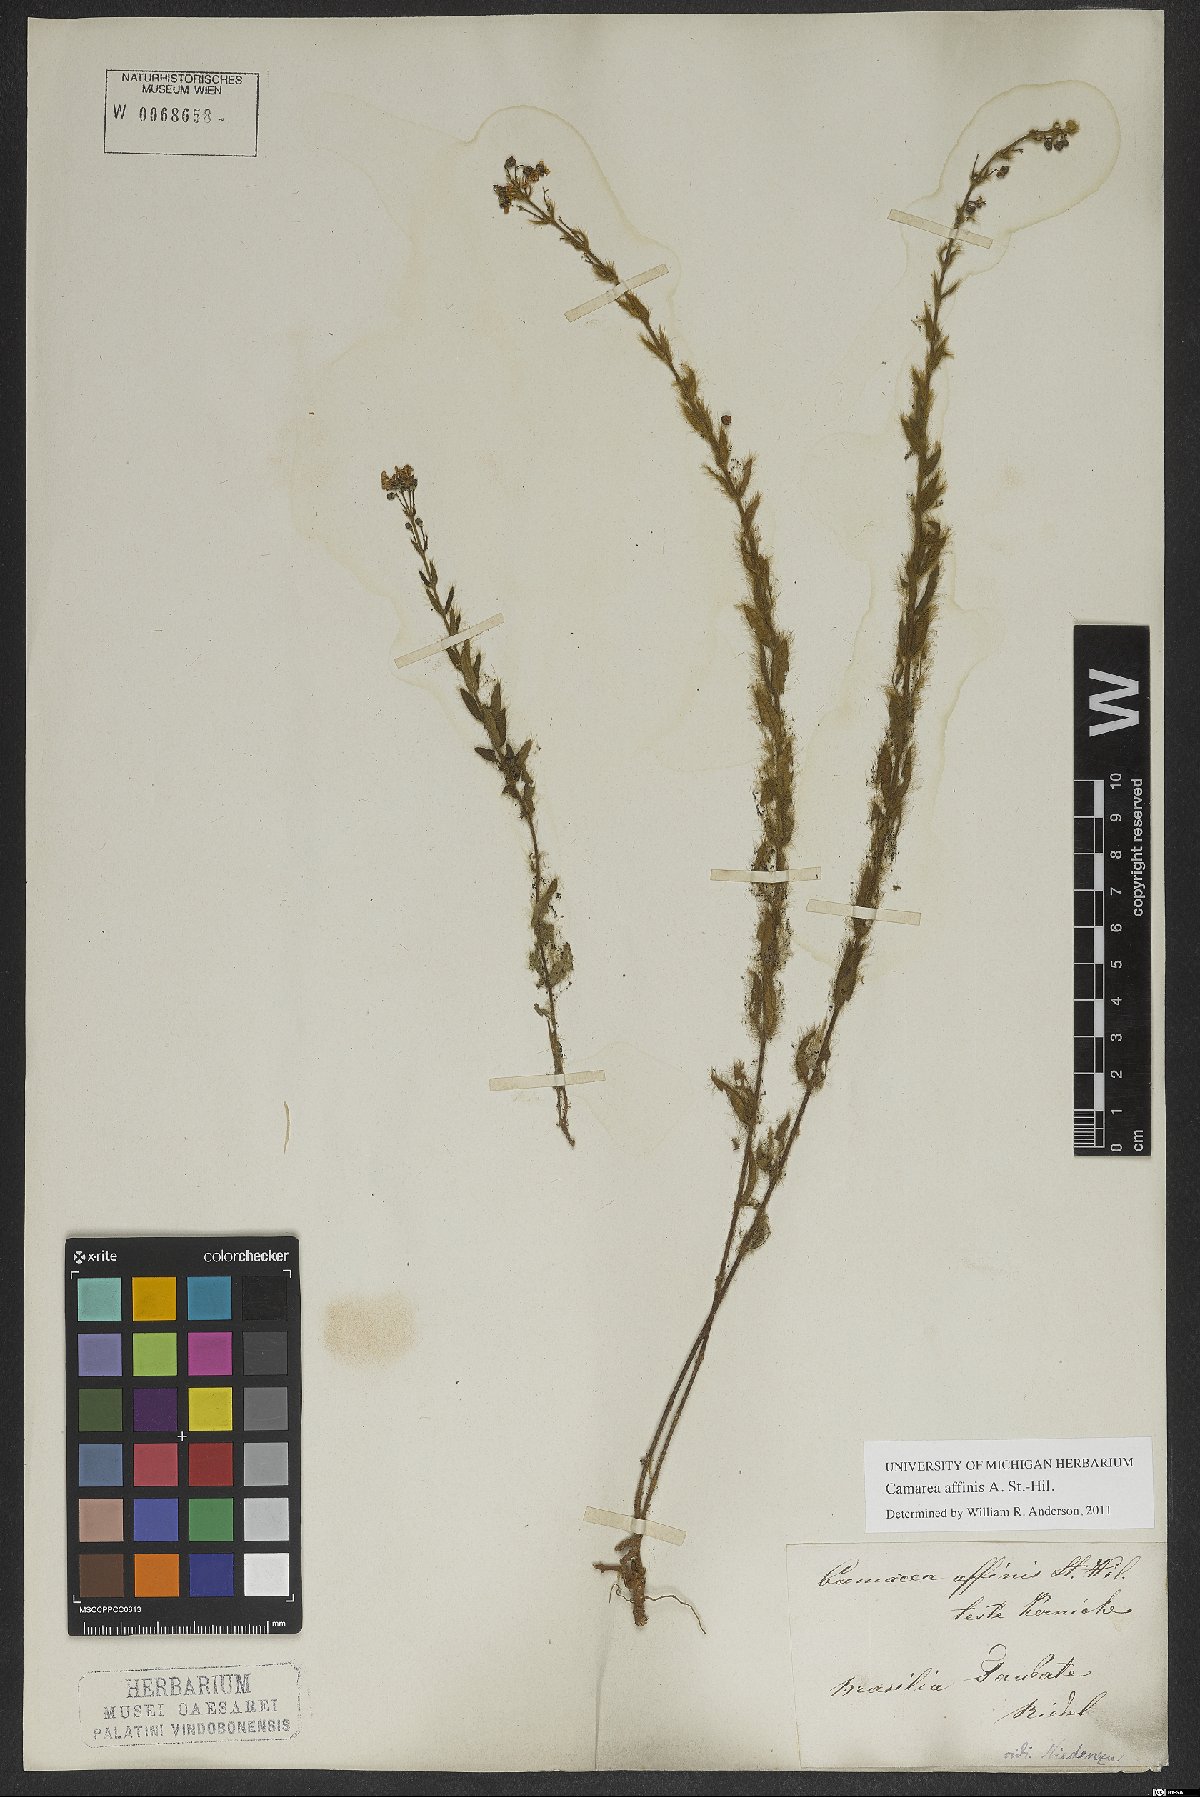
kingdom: Plantae
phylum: Tracheophyta
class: Magnoliopsida
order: Malpighiales
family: Malpighiaceae
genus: Camarea
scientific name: Camarea affinis
